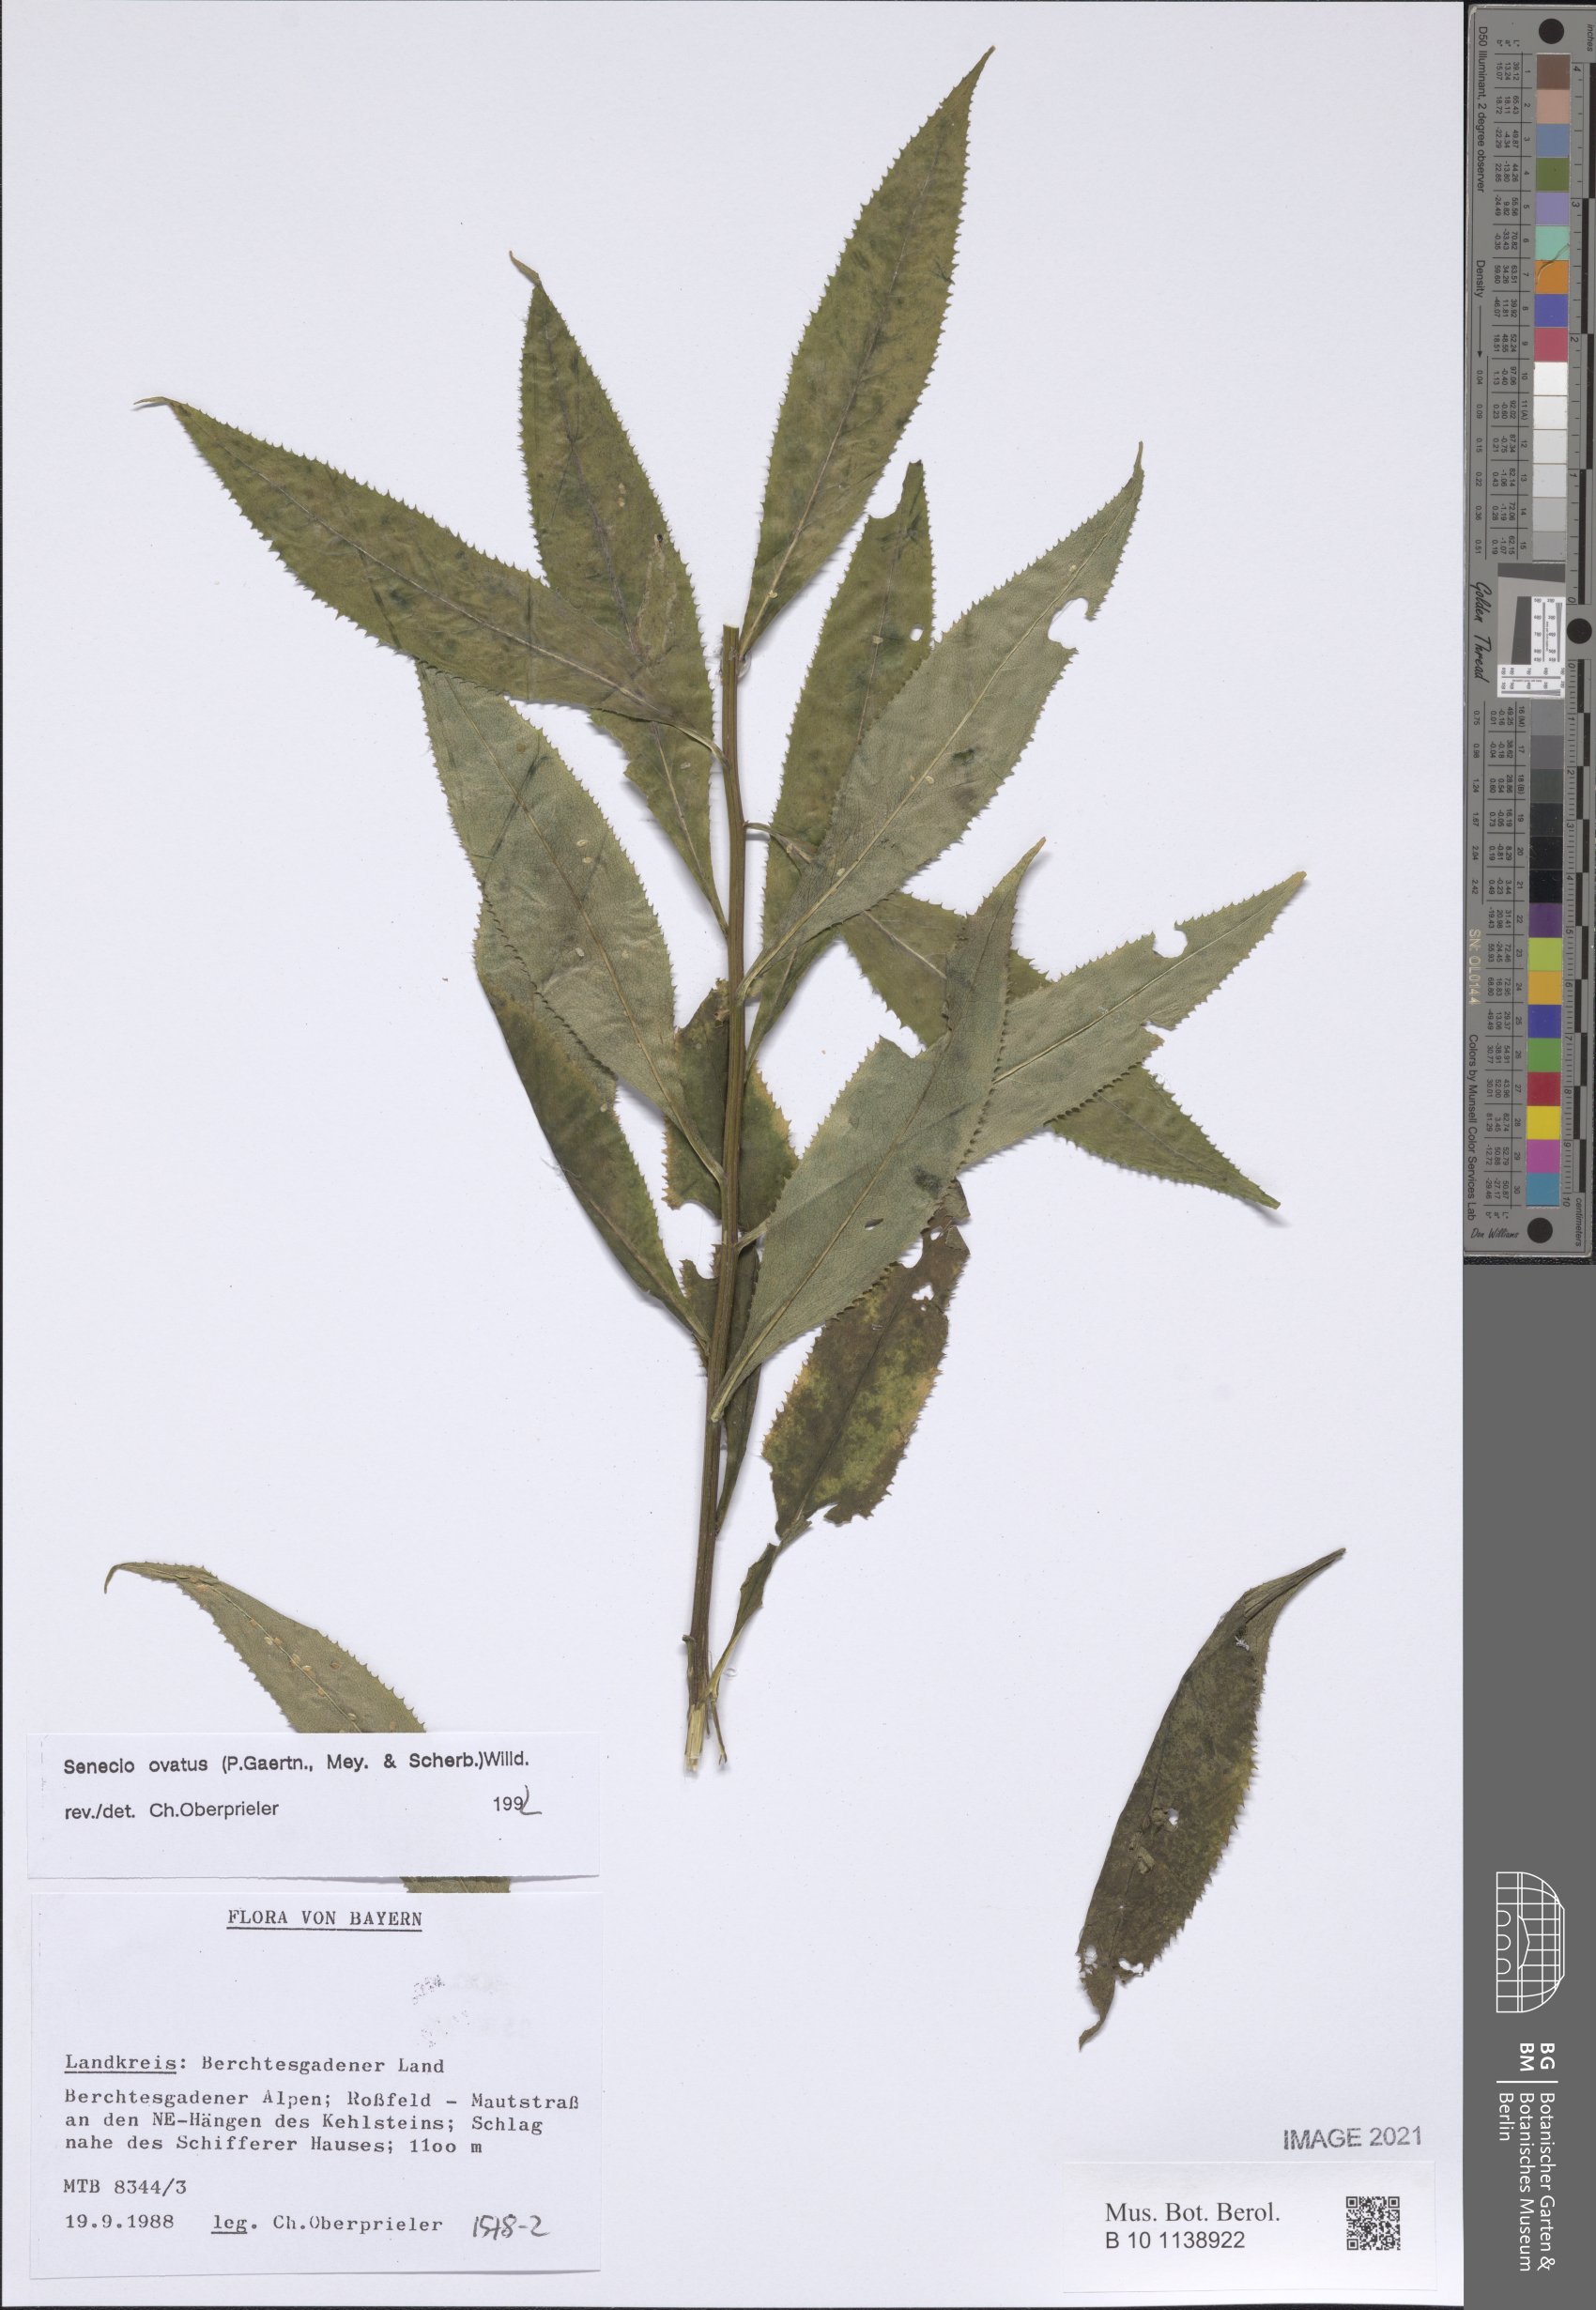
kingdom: Plantae
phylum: Tracheophyta
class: Magnoliopsida
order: Asterales
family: Asteraceae
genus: Senecio
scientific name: Senecio ovatus
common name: Wood ragwort
